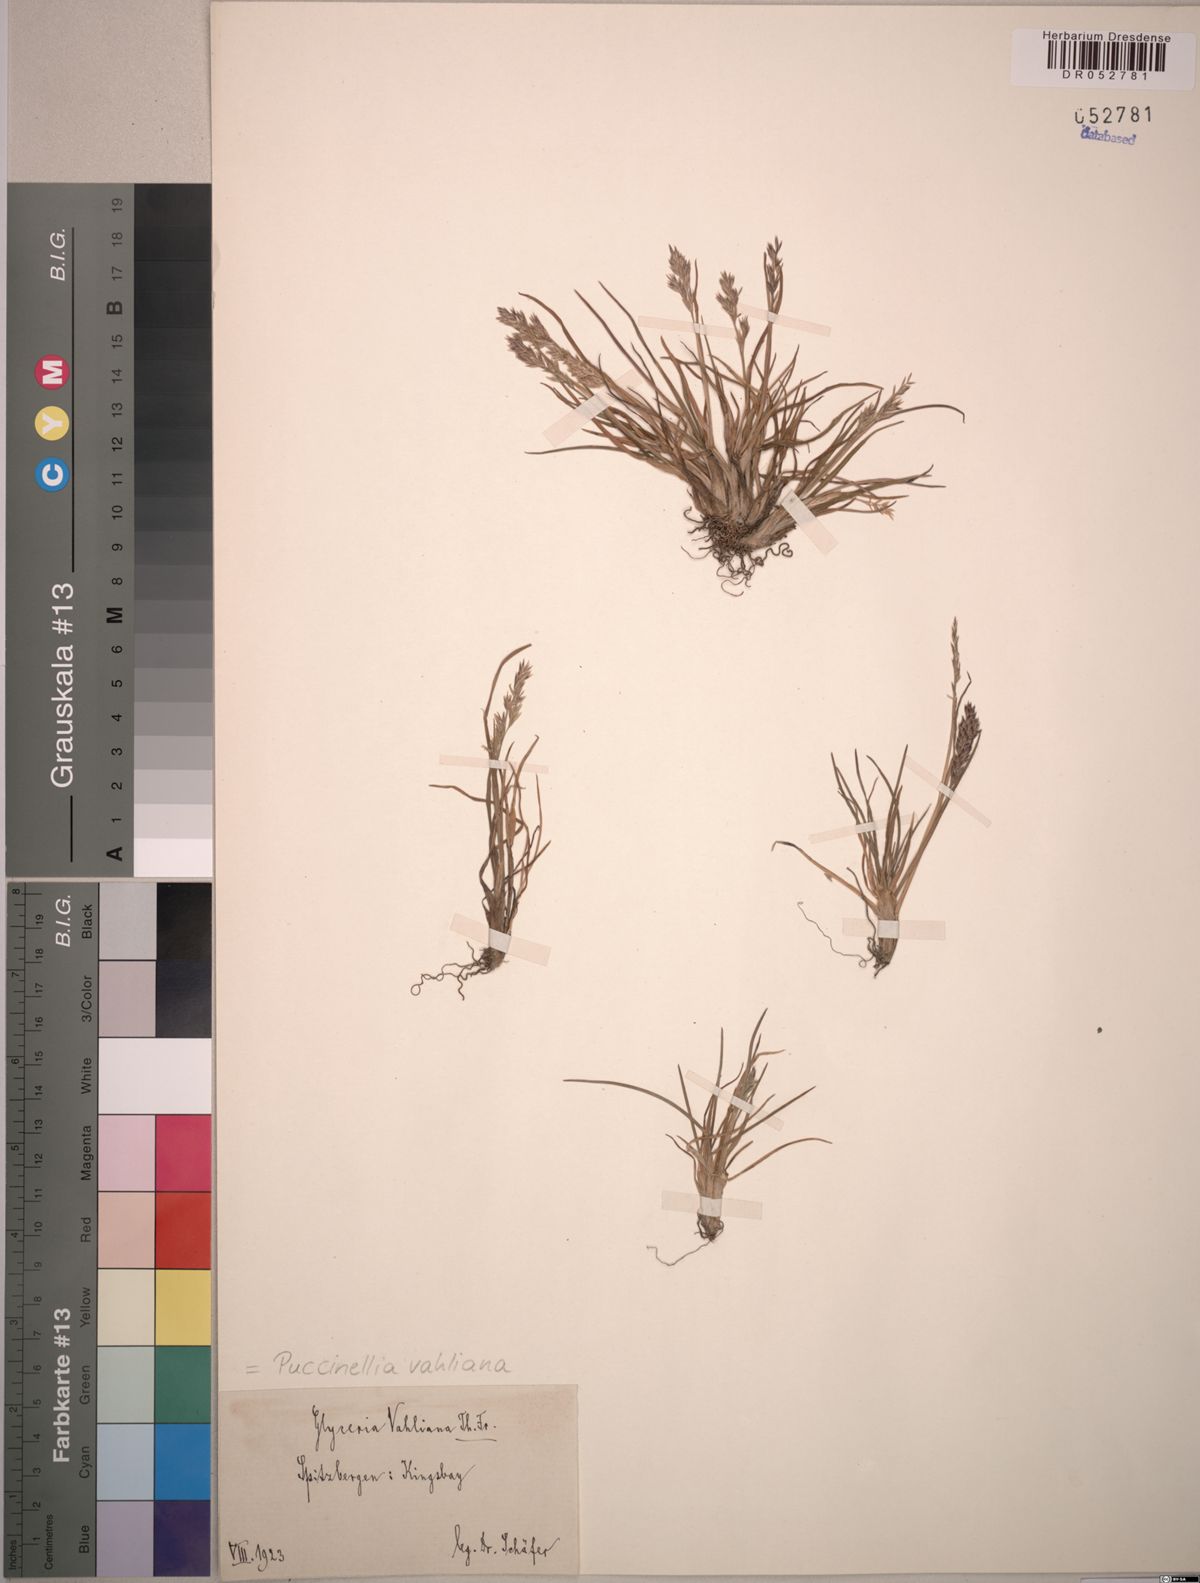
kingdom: Plantae
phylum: Tracheophyta
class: Liliopsida
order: Poales
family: Poaceae
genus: Puccinellia
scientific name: Puccinellia vahliana
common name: Vahl's alkaligrass
